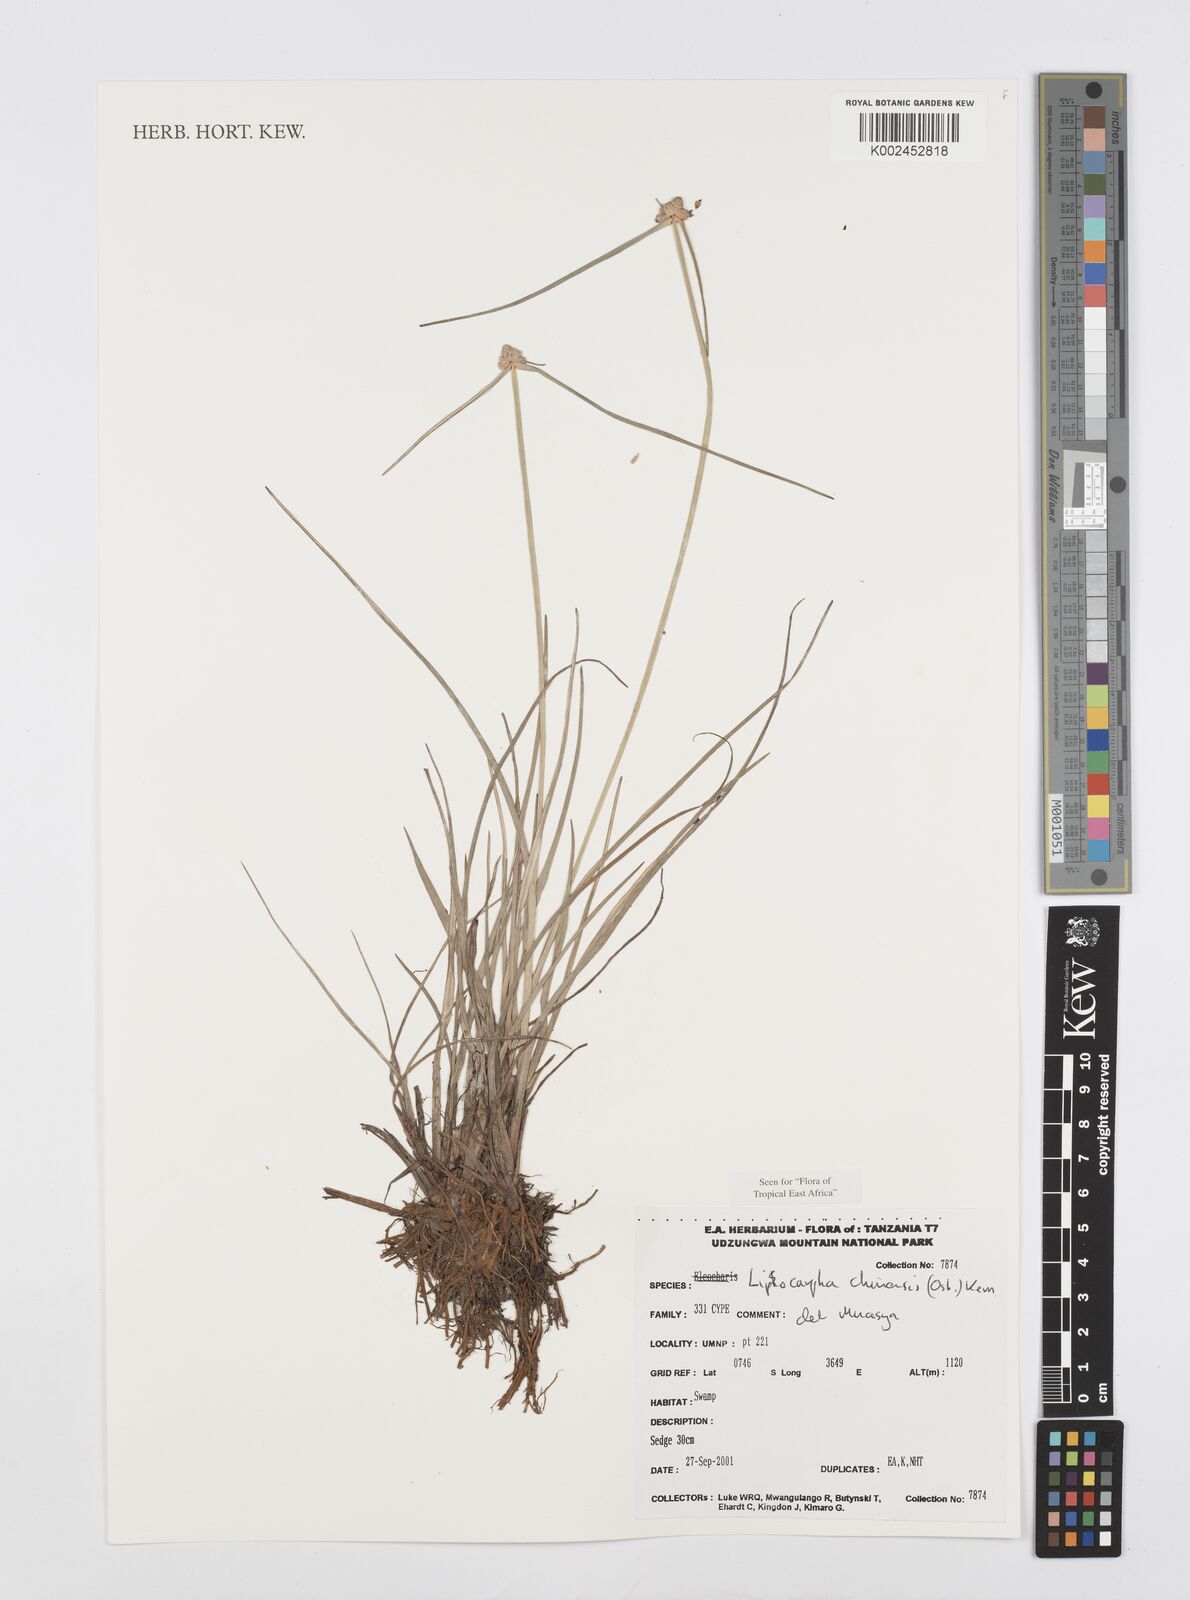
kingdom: Plantae
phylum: Tracheophyta
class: Liliopsida
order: Poales
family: Cyperaceae
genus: Cyperus
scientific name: Cyperus albescens
